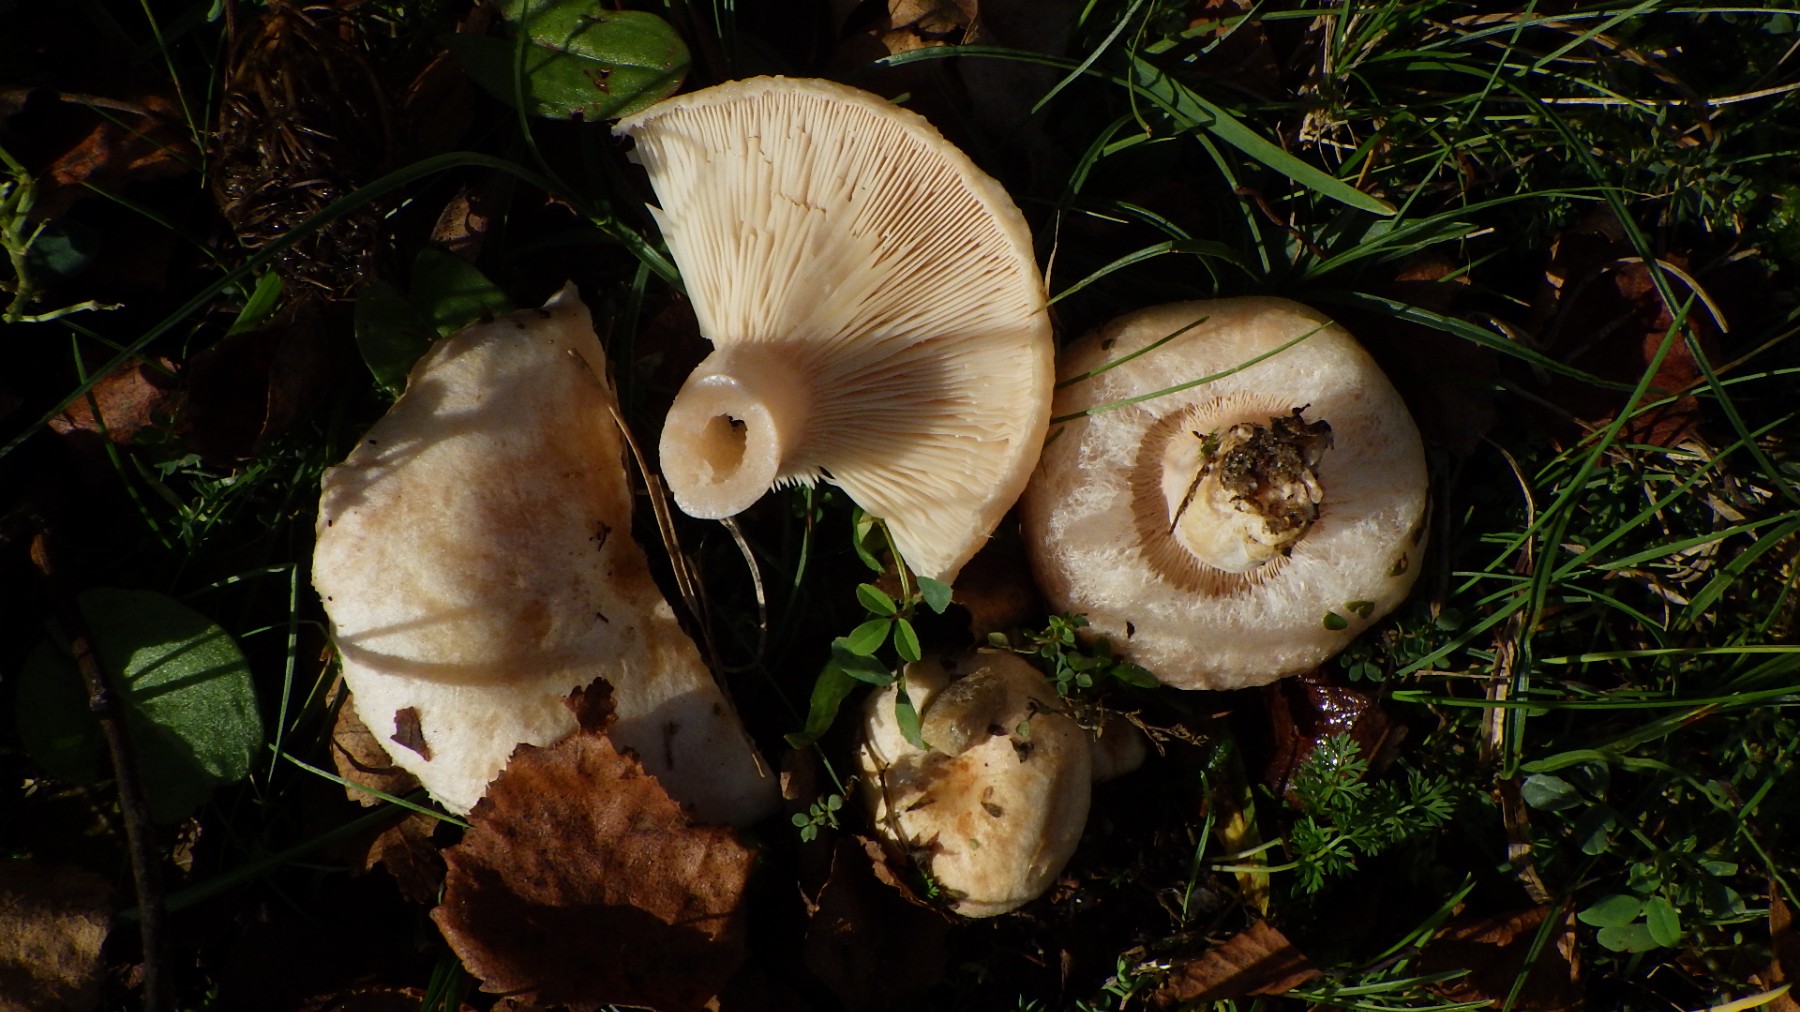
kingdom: Fungi
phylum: Basidiomycota
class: Agaricomycetes
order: Russulales
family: Russulaceae
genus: Lactarius
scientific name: Lactarius pubescens
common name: dunet mælkehat
